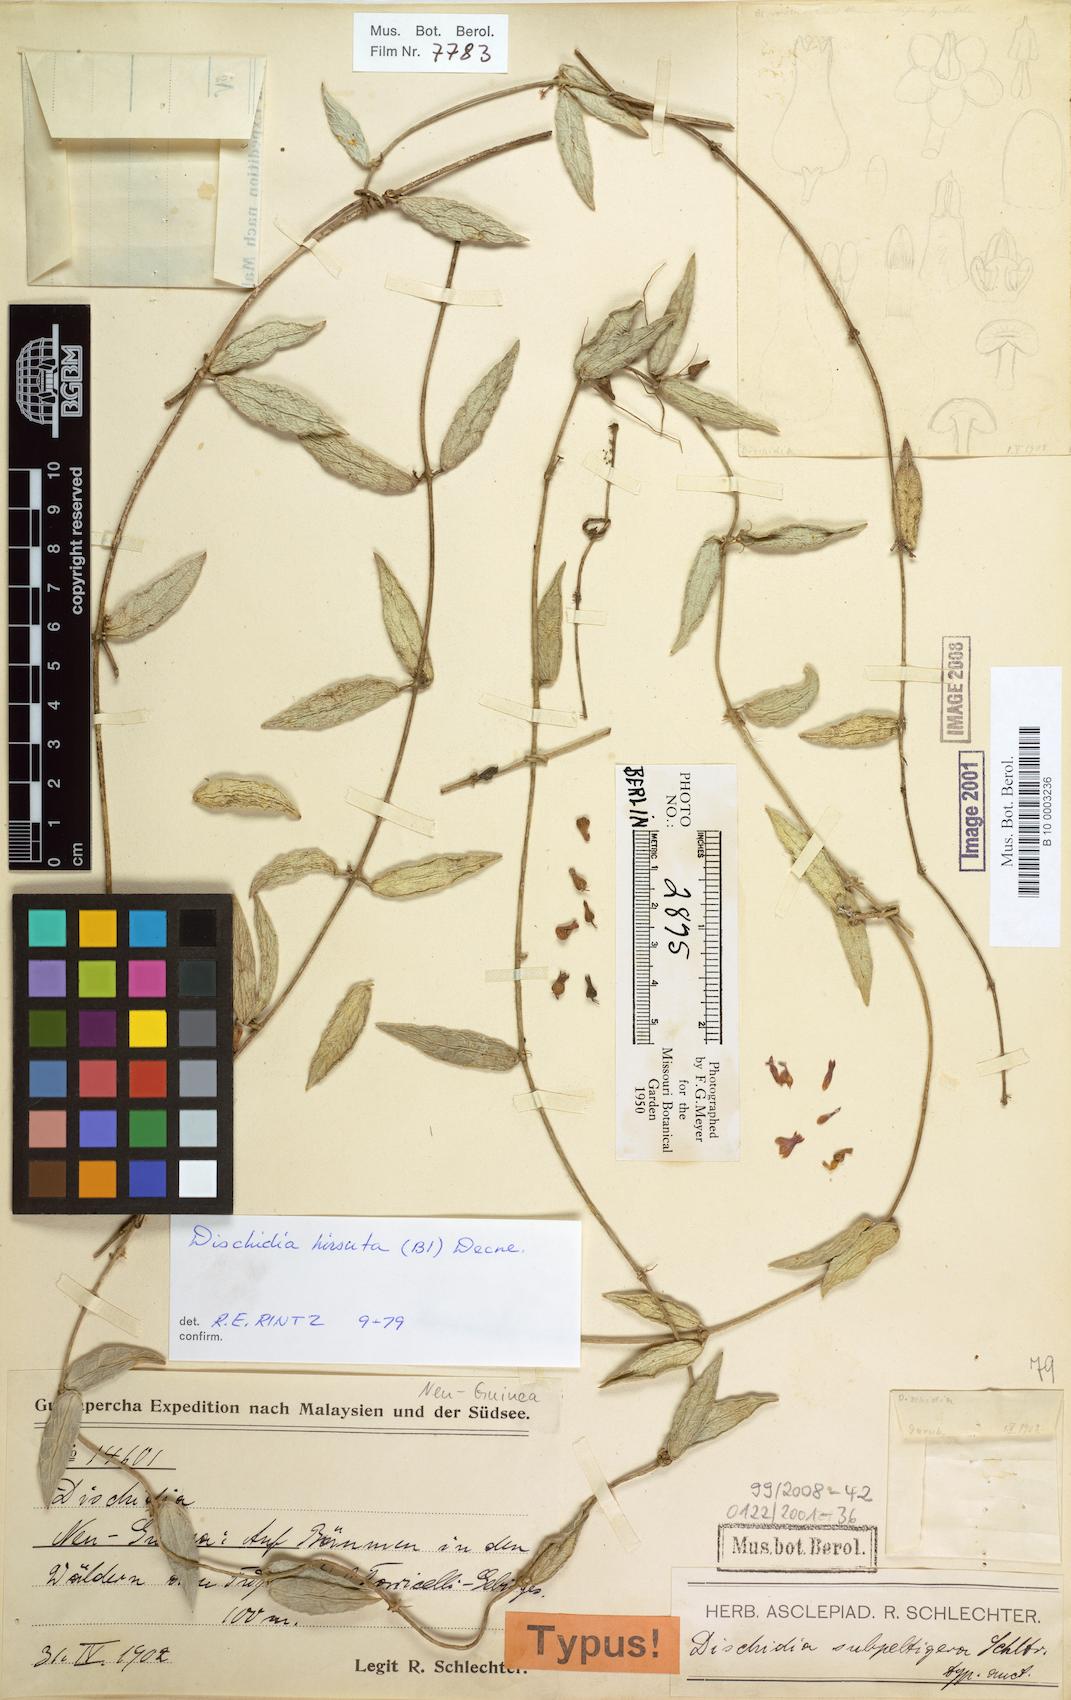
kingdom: Plantae
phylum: Tracheophyta
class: Magnoliopsida
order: Gentianales
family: Apocynaceae
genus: Dischidia
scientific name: Dischidia hirsuta
